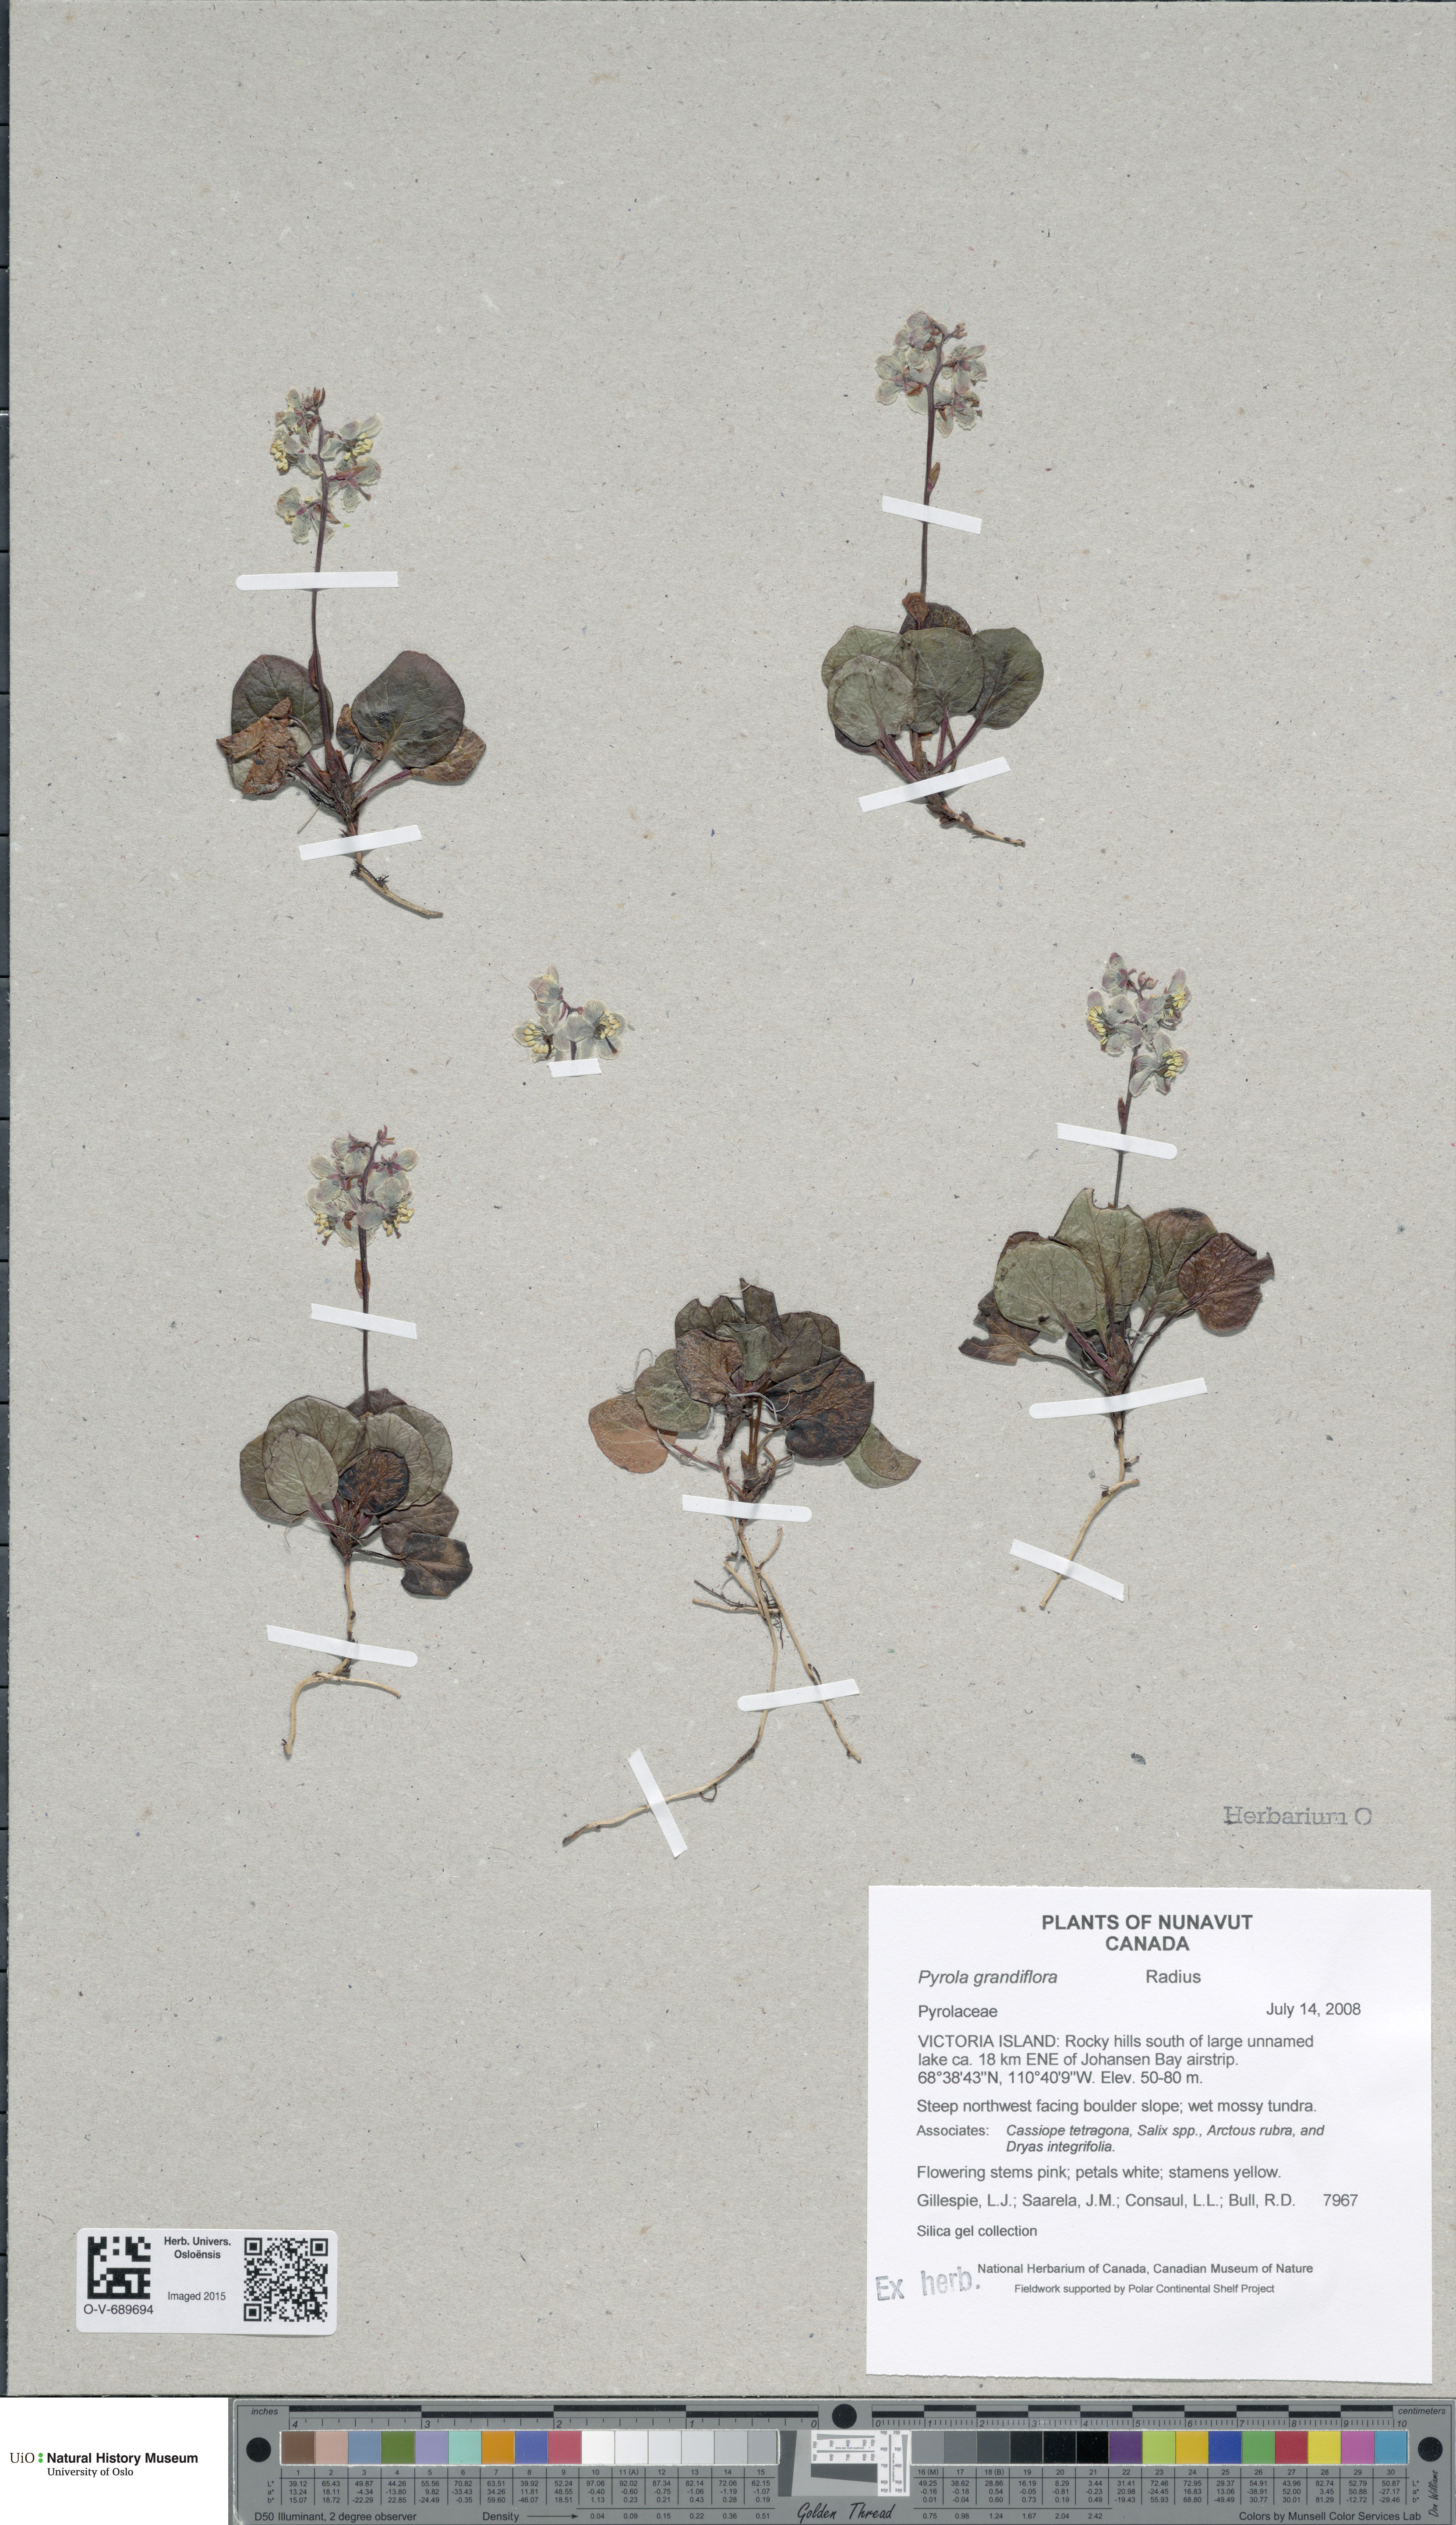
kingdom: Plantae
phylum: Tracheophyta
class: Magnoliopsida
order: Ericales
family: Ericaceae
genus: Pyrola
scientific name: Pyrola grandiflora
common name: Arctic pyrola
